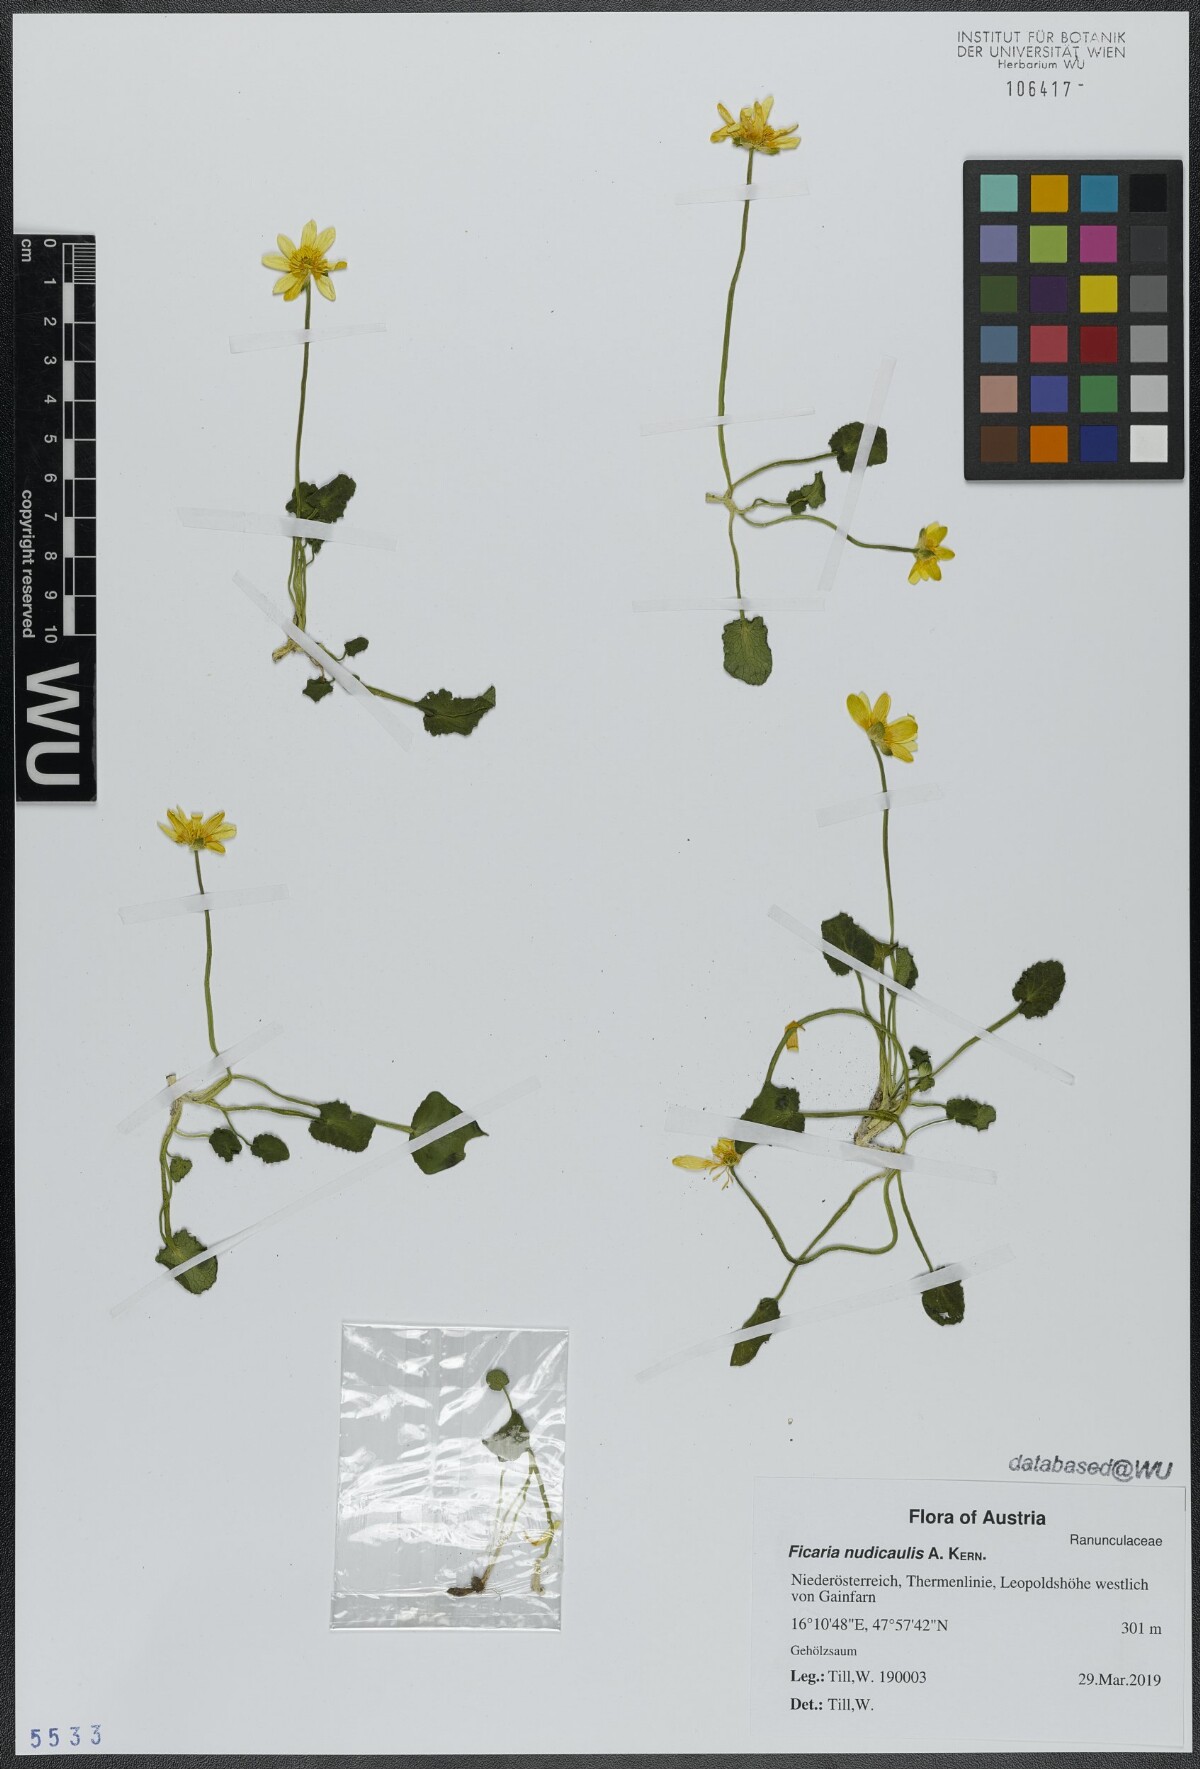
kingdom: Plantae
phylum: Tracheophyta
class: Magnoliopsida
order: Ranunculales
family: Ranunculaceae
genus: Ficaria
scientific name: Ficaria calthifolia
